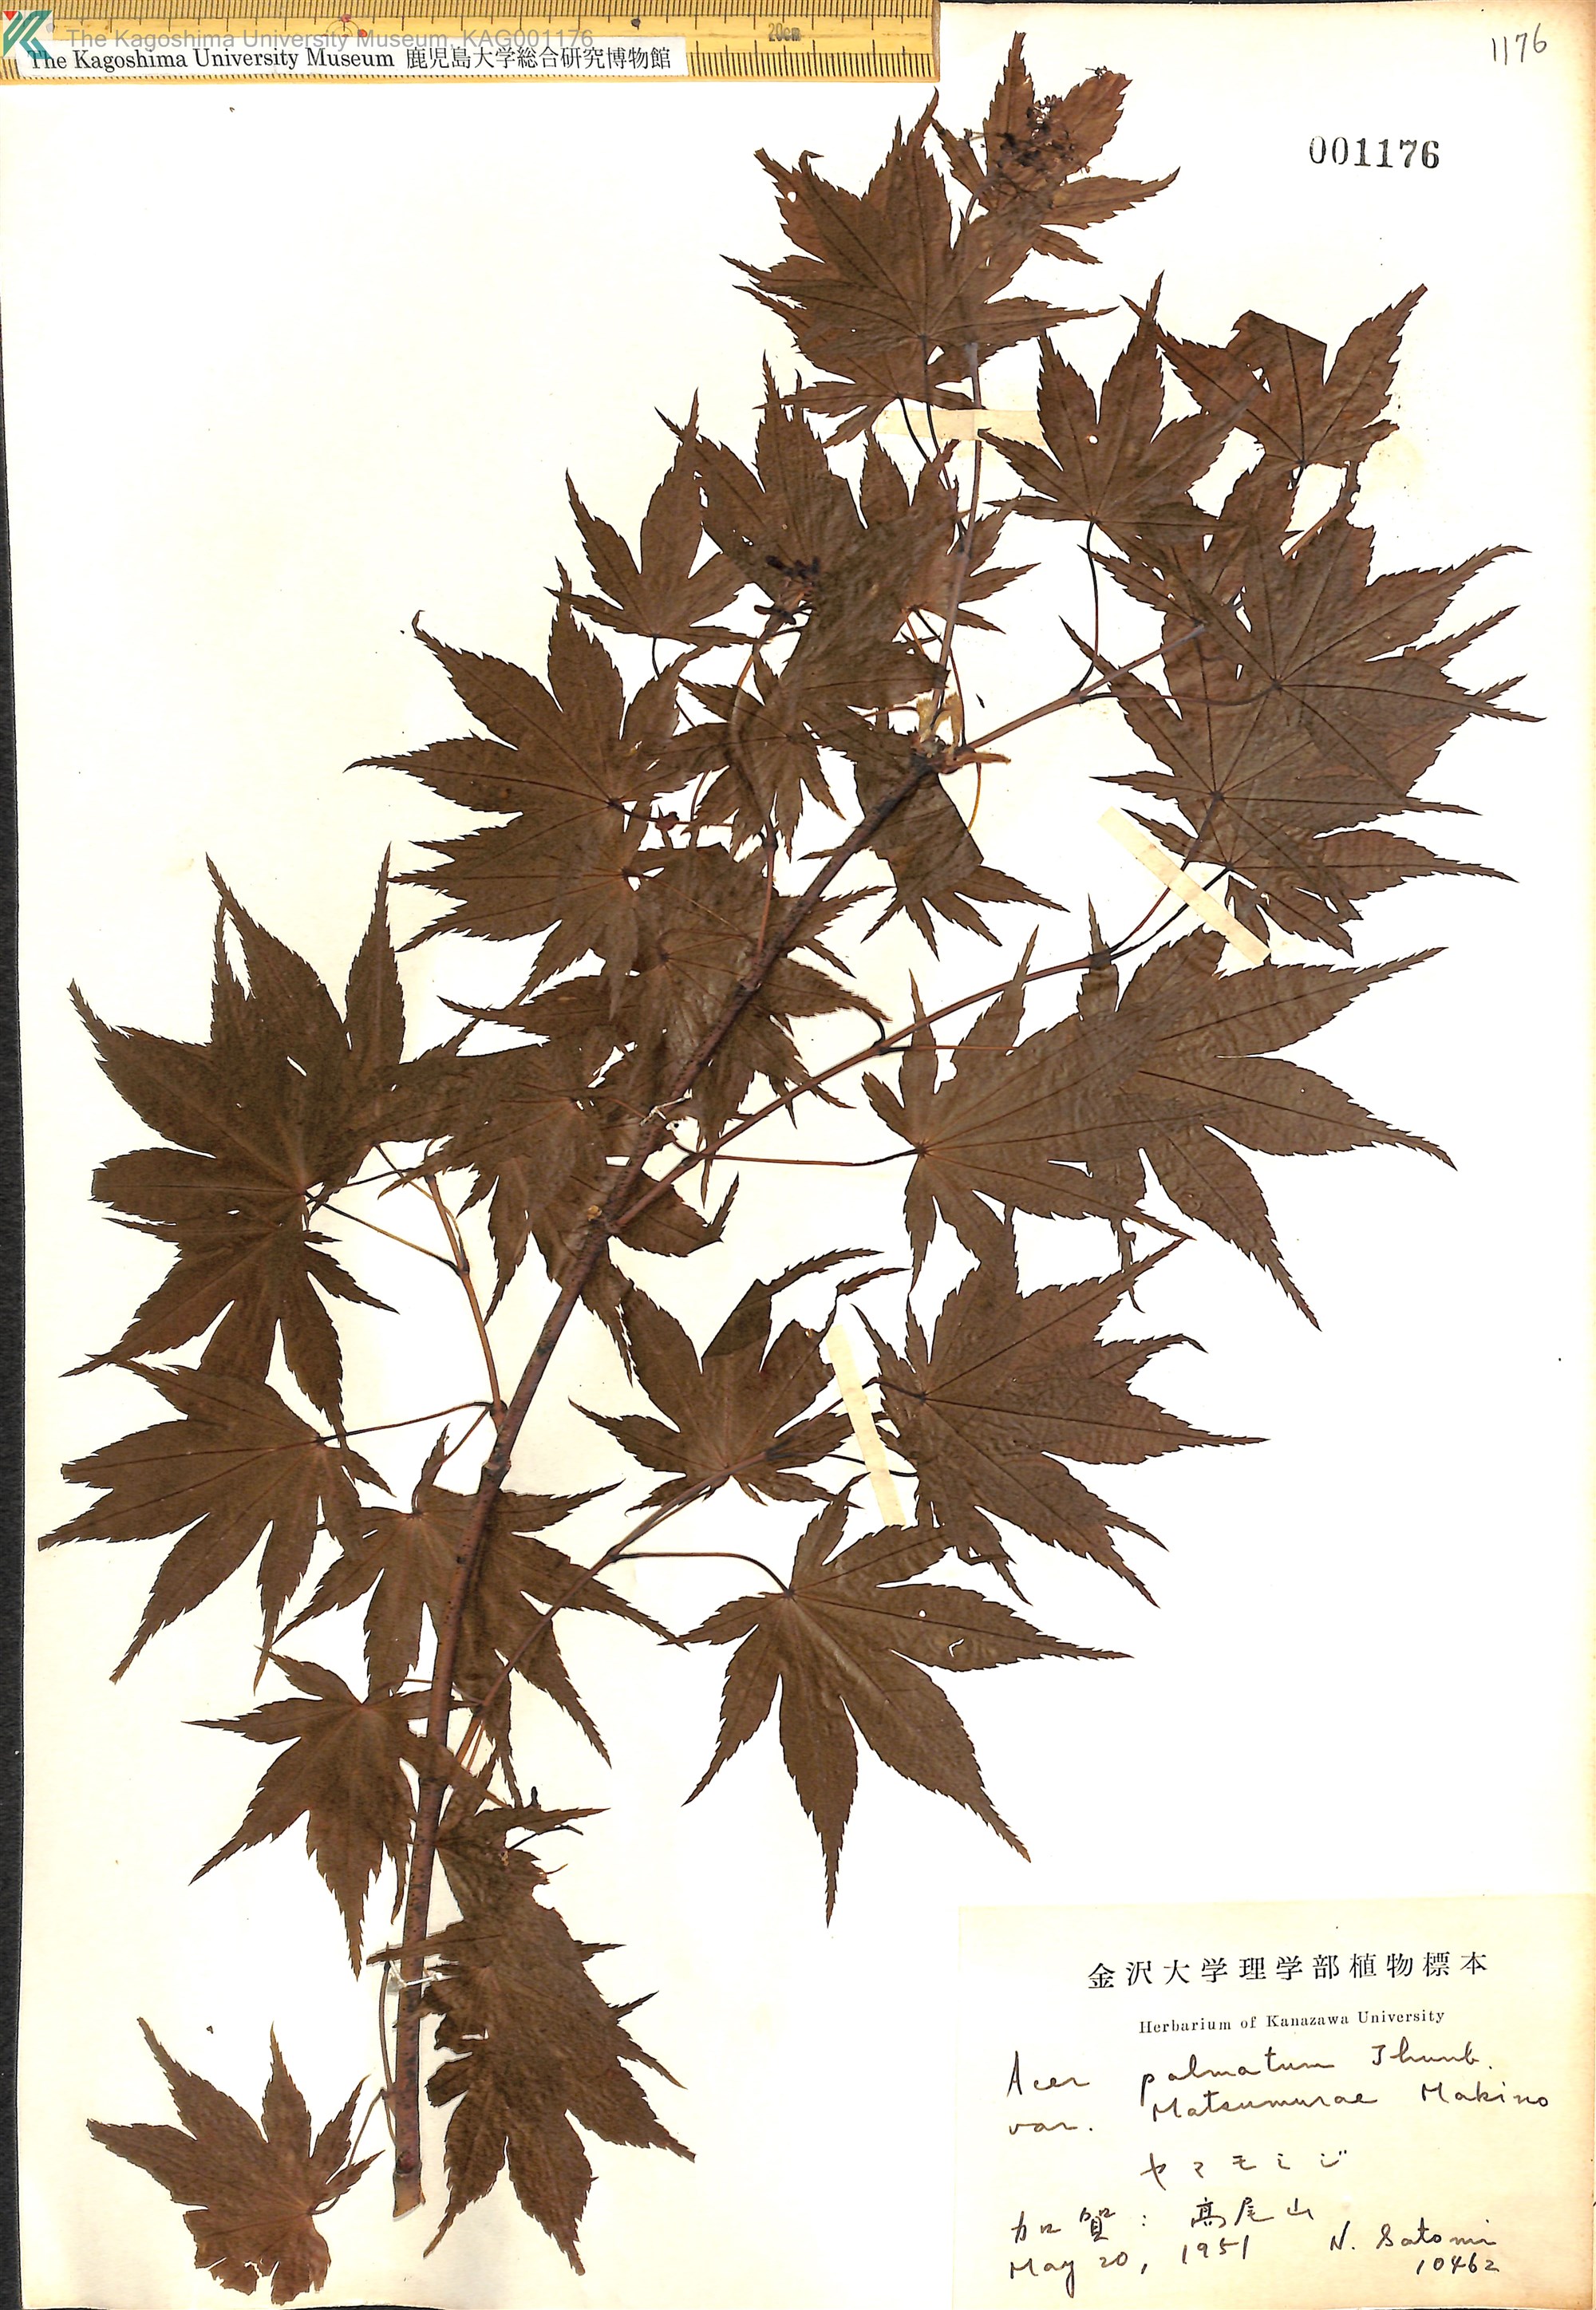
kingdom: Plantae
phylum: Tracheophyta
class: Magnoliopsida
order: Sapindales
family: Sapindaceae
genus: Acer
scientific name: Acer palmatum
